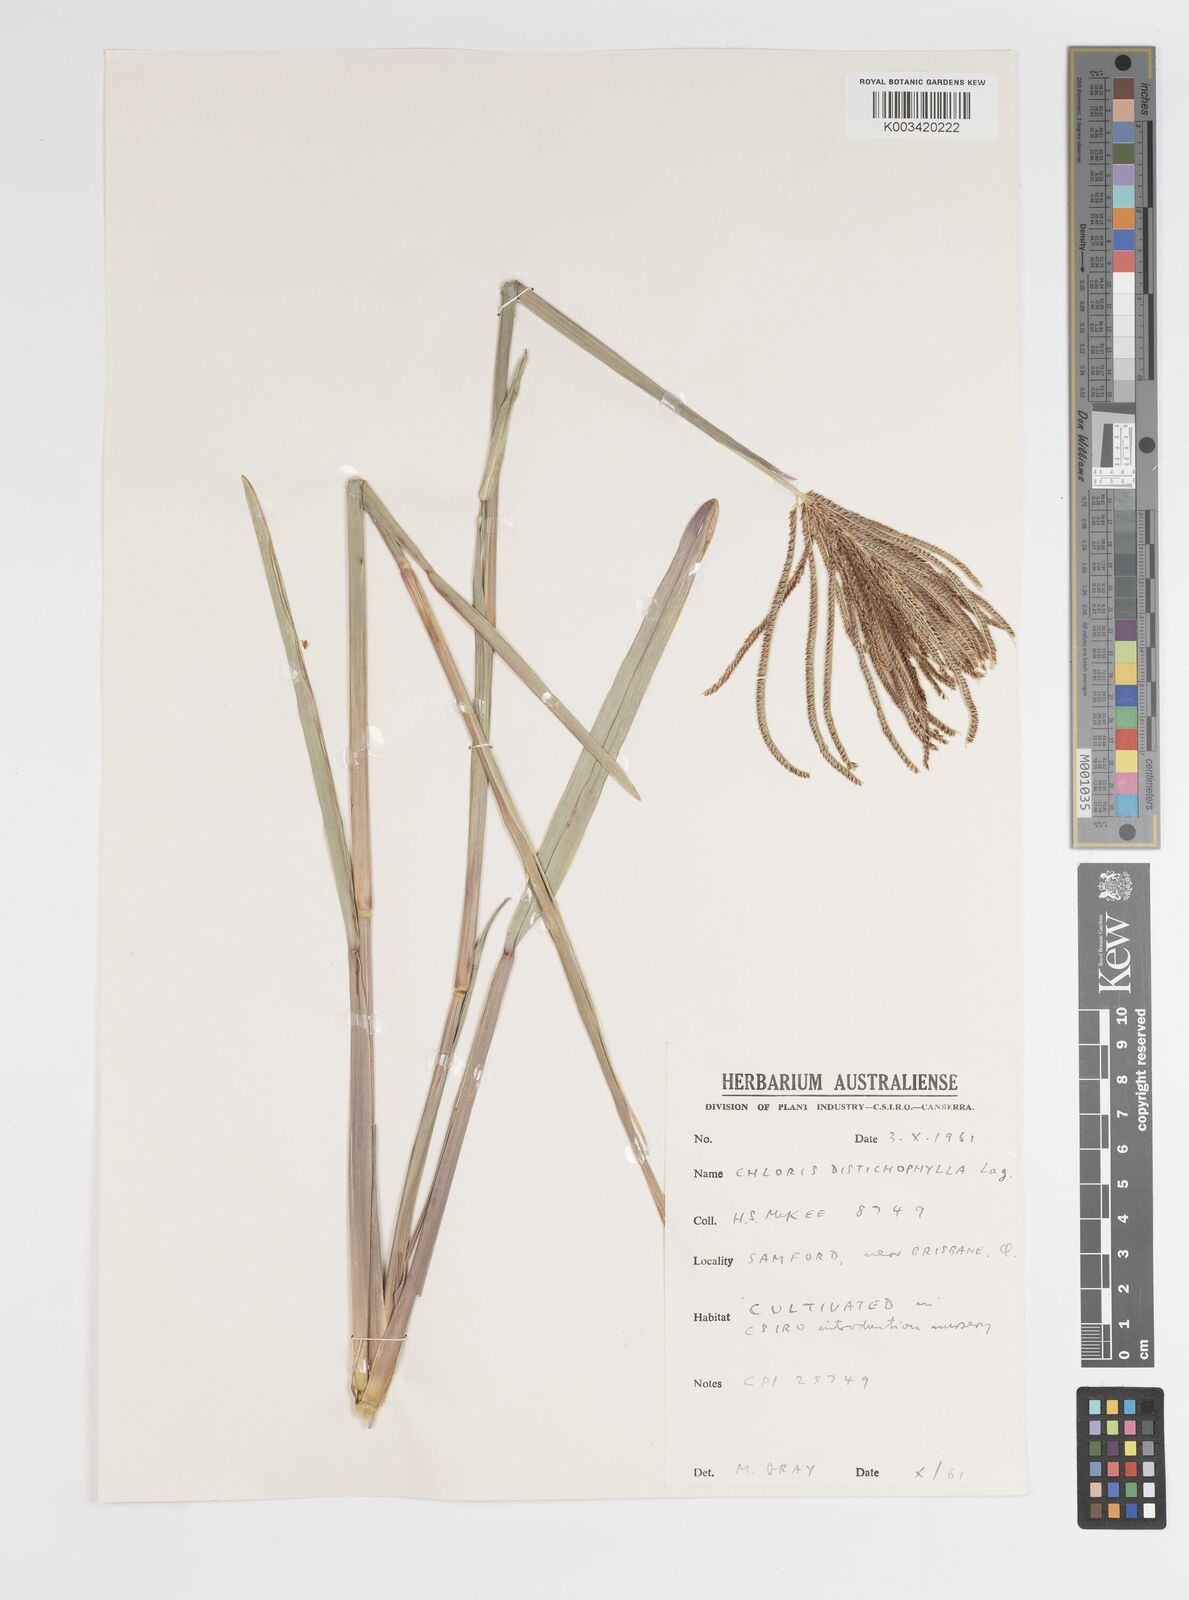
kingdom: Plantae
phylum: Tracheophyta
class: Liliopsida
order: Poales
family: Poaceae
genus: Eustachys
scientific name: Eustachys distichophylla
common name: Weeping fingergrass
